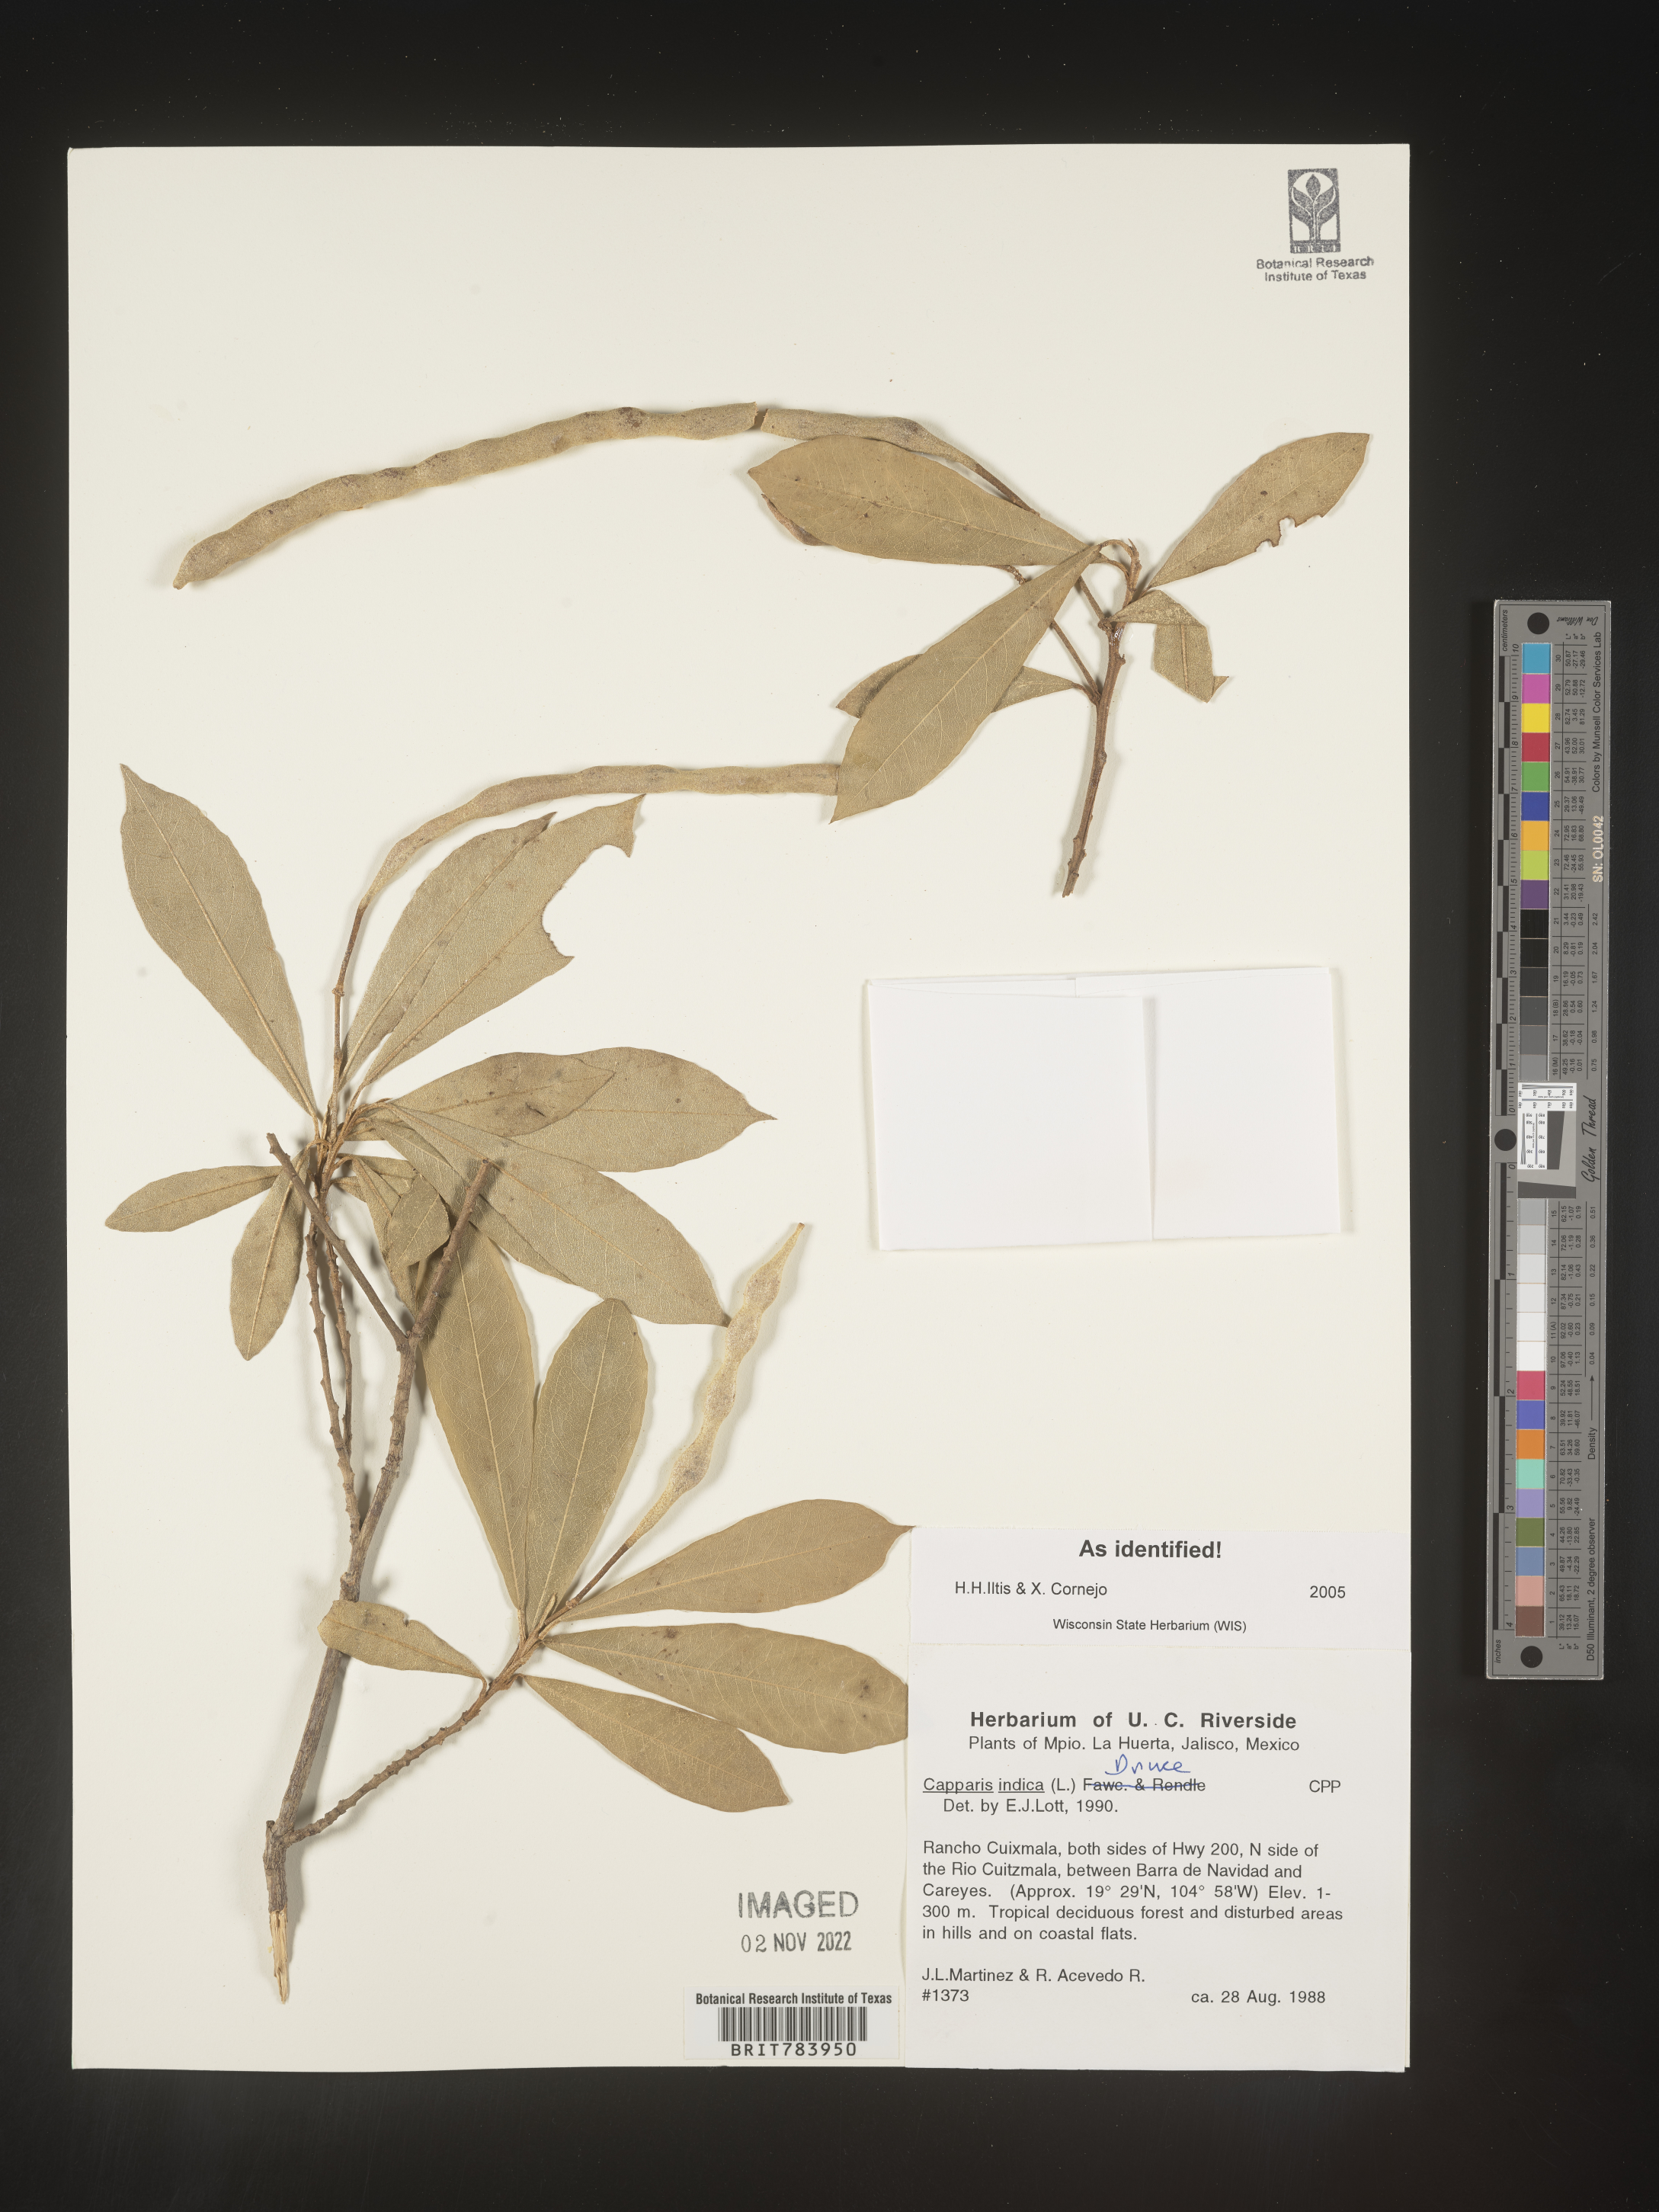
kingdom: Plantae
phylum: Tracheophyta
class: Magnoliopsida
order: Brassicales
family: Capparaceae
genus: Capparis
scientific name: Capparis
